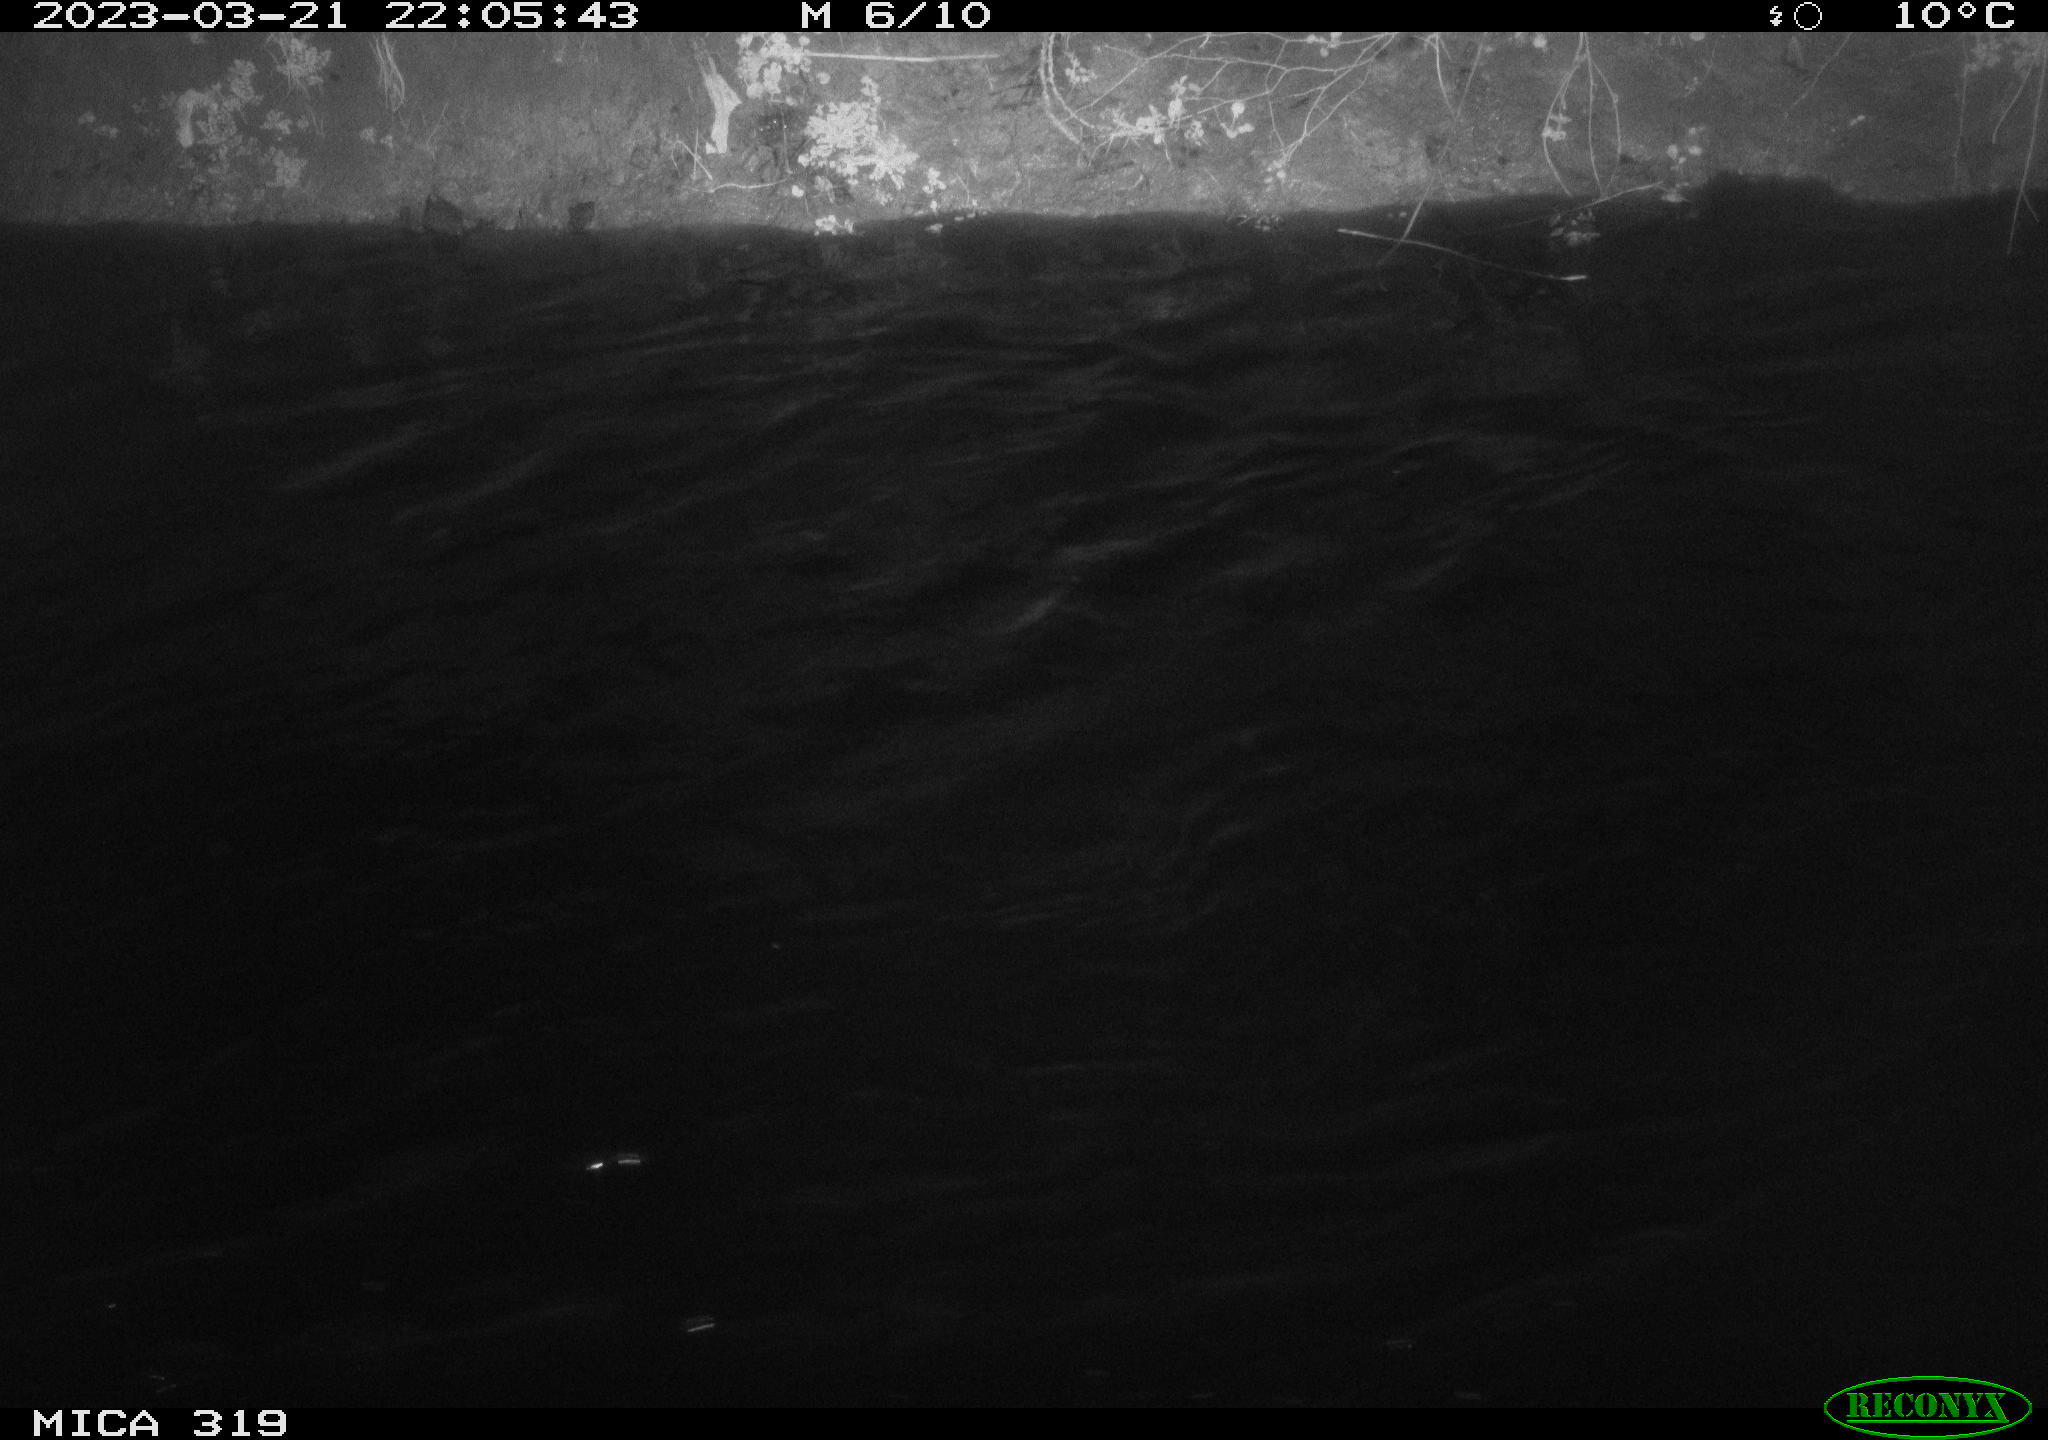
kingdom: Animalia
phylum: Chordata
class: Aves
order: Anseriformes
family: Anatidae
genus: Anas
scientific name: Anas
